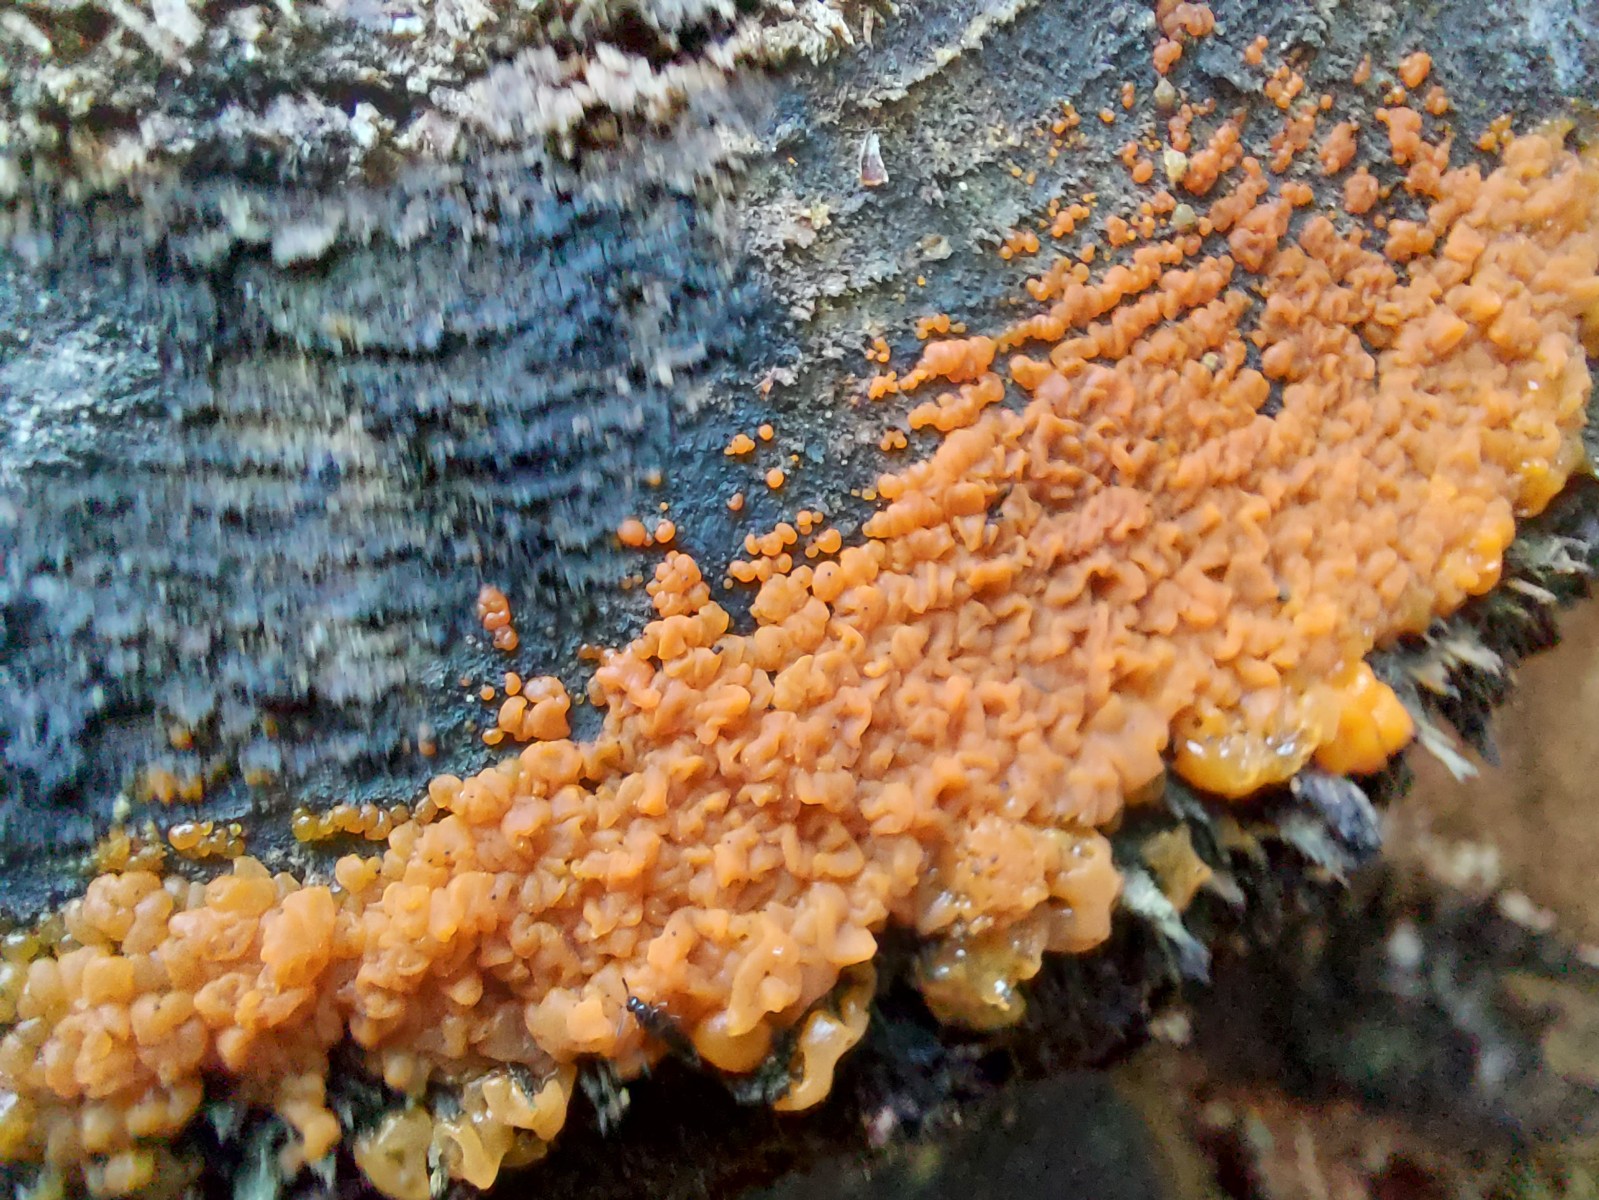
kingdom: Fungi
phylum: Basidiomycota
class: Dacrymycetes
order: Dacrymycetales
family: Dacrymycetaceae
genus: Dacrymyces
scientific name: Dacrymyces
